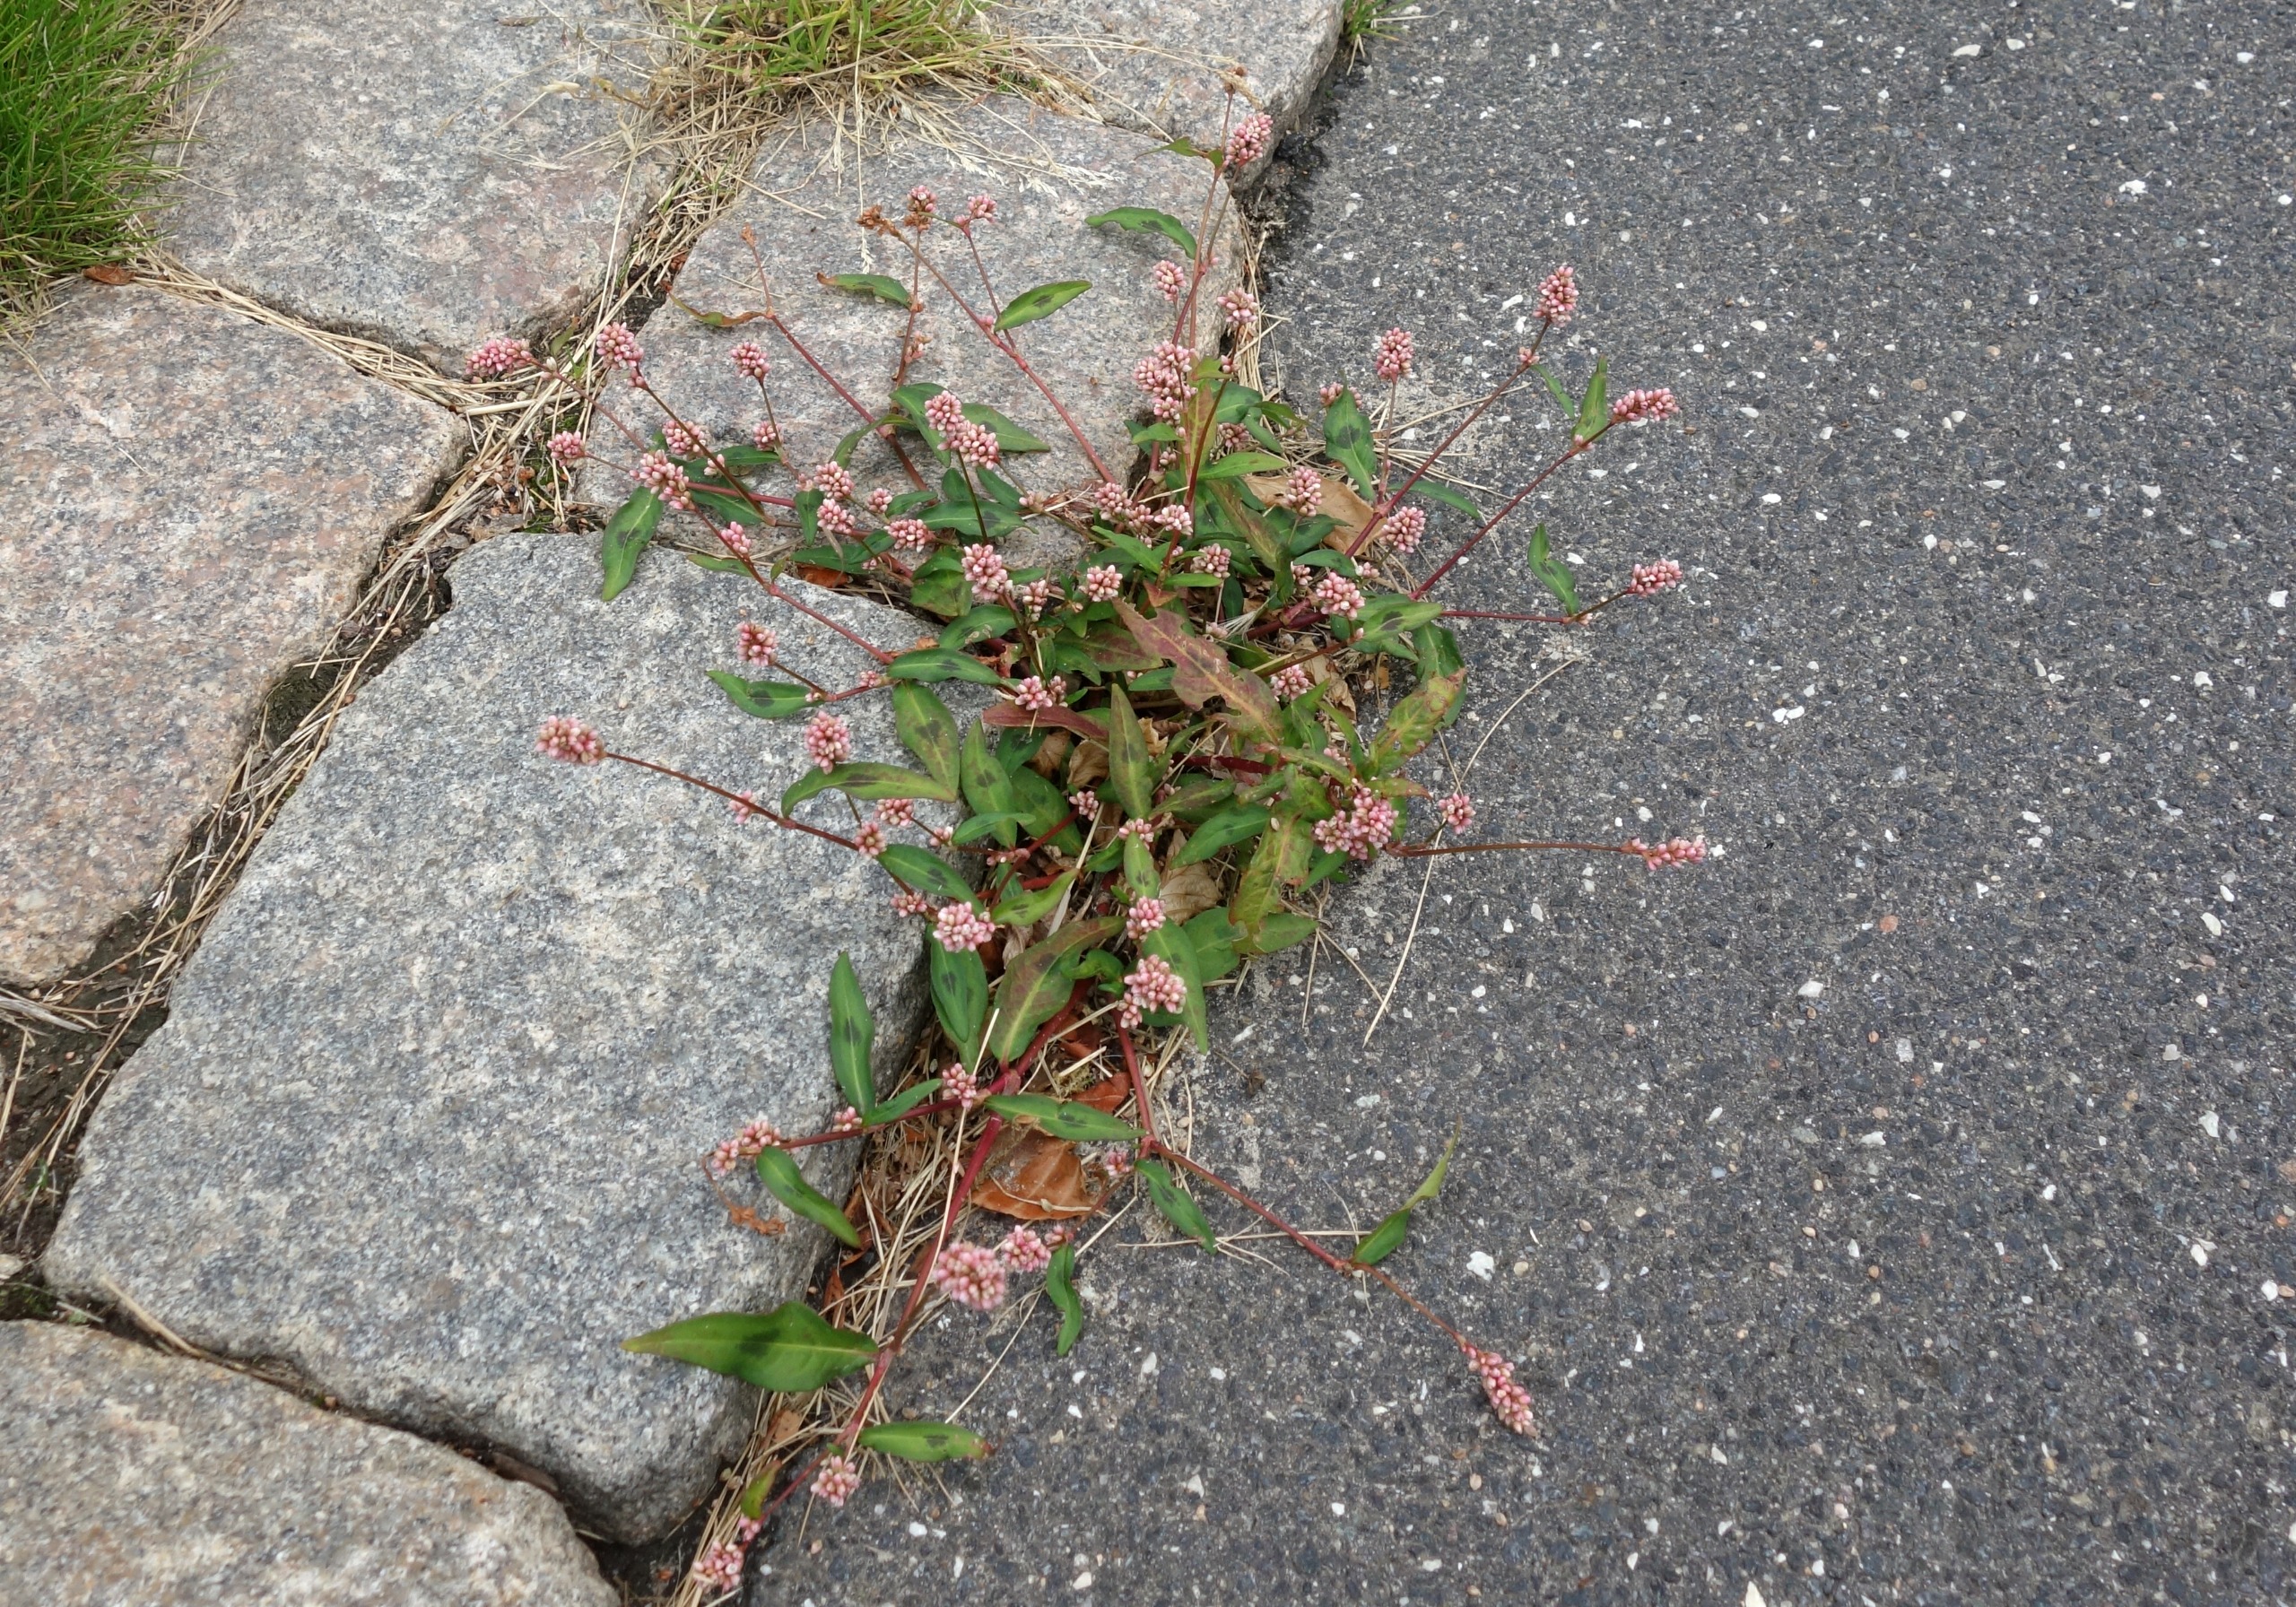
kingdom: Plantae
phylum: Tracheophyta
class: Magnoliopsida
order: Caryophyllales
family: Polygonaceae
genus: Persicaria
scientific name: Persicaria maculosa
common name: Fersken-pileurt
